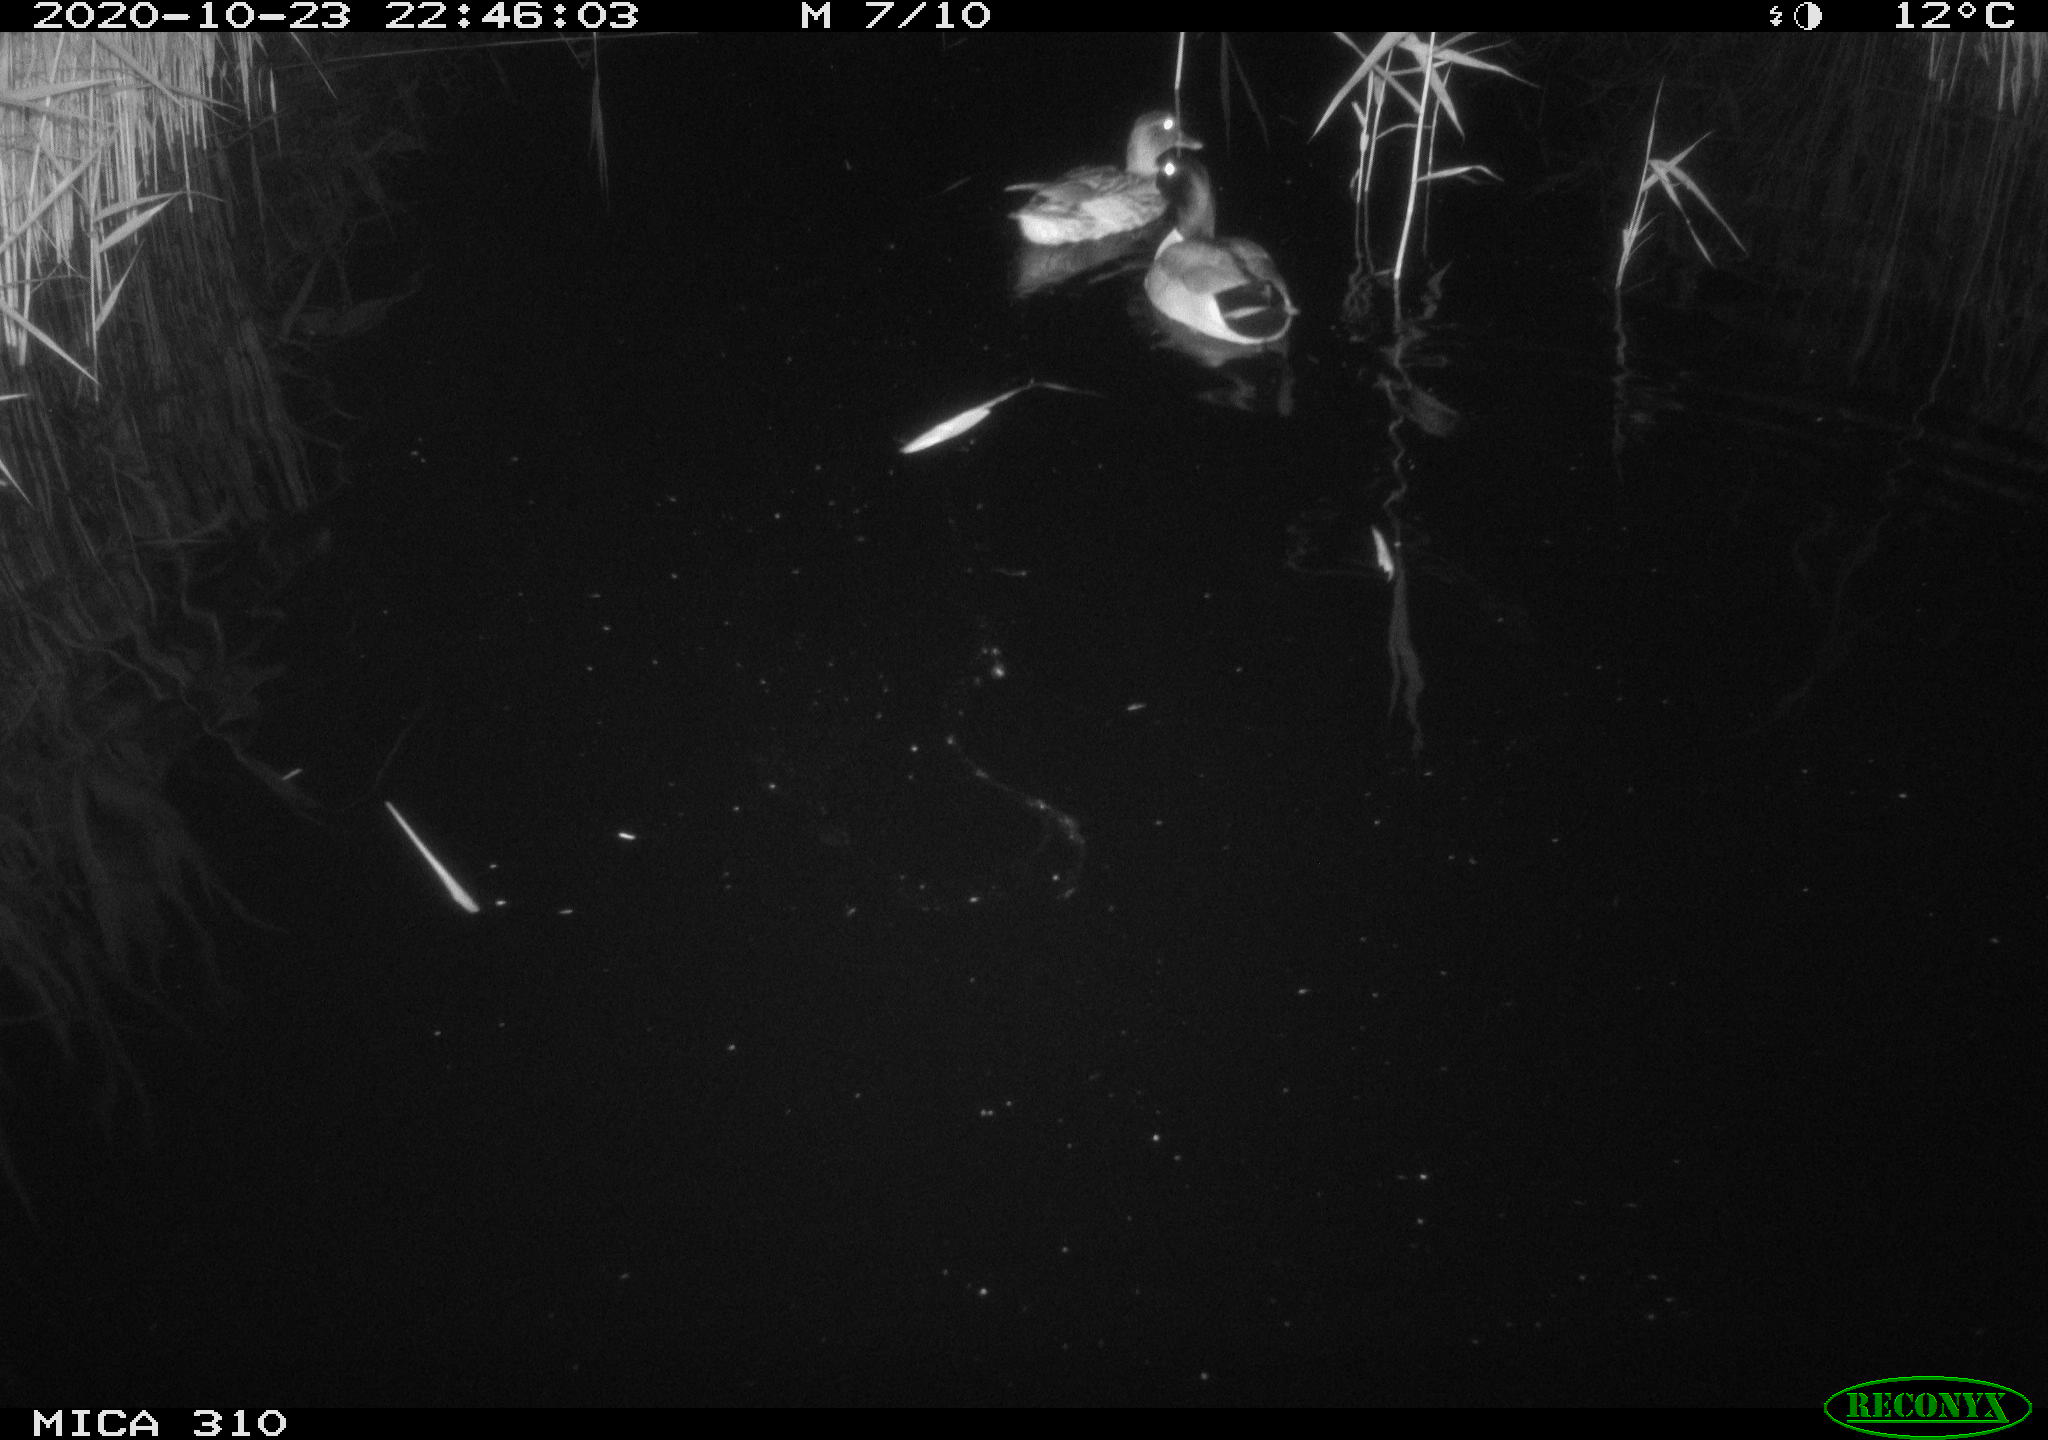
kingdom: Animalia
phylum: Chordata
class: Aves
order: Anseriformes
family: Anatidae
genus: Anas
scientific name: Anas platyrhynchos
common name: Mallard
